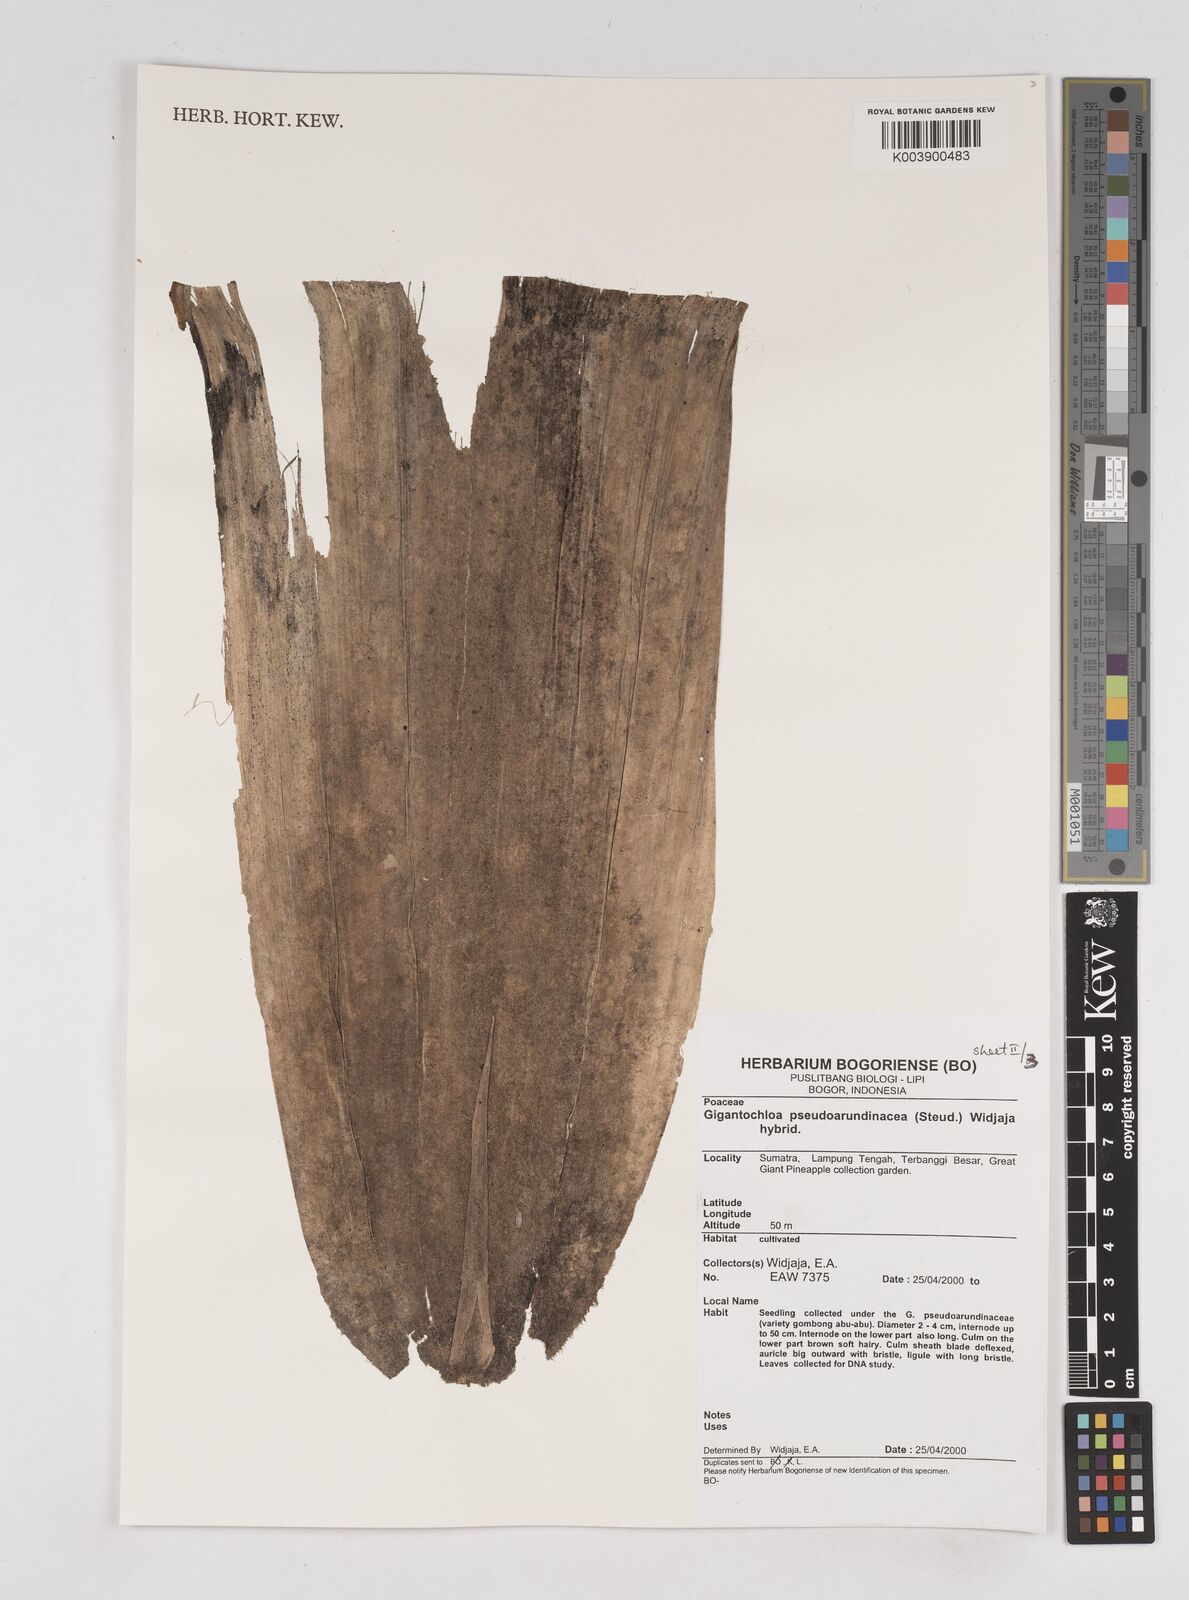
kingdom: Plantae
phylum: Tracheophyta
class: Liliopsida
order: Poales
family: Poaceae
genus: Gigantochloa
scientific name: Gigantochloa verticillata
